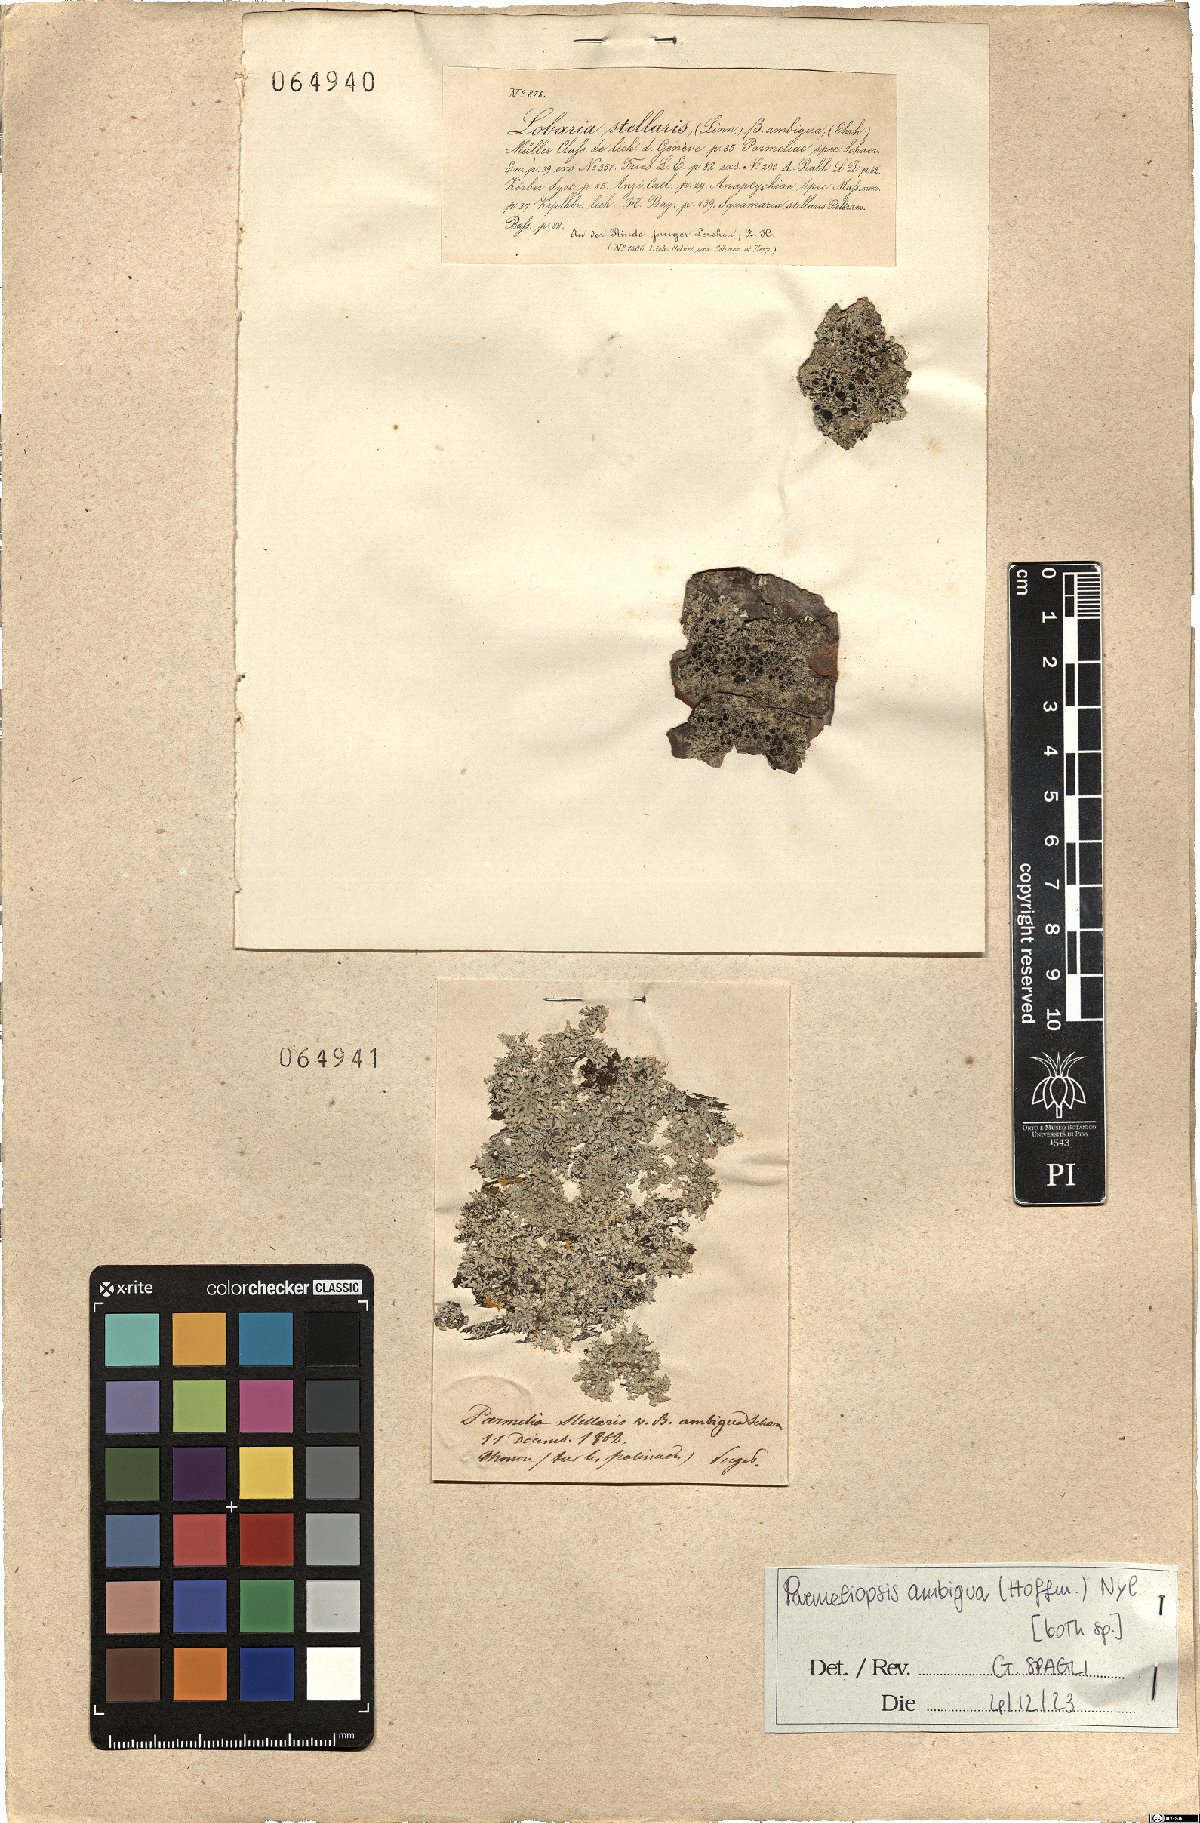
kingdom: Fungi
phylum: Ascomycota
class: Lecanoromycetes
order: Lecanorales
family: Parmeliaceae
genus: Parmeliopsis
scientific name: Parmeliopsis ambigua
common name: Green starburst lichen
